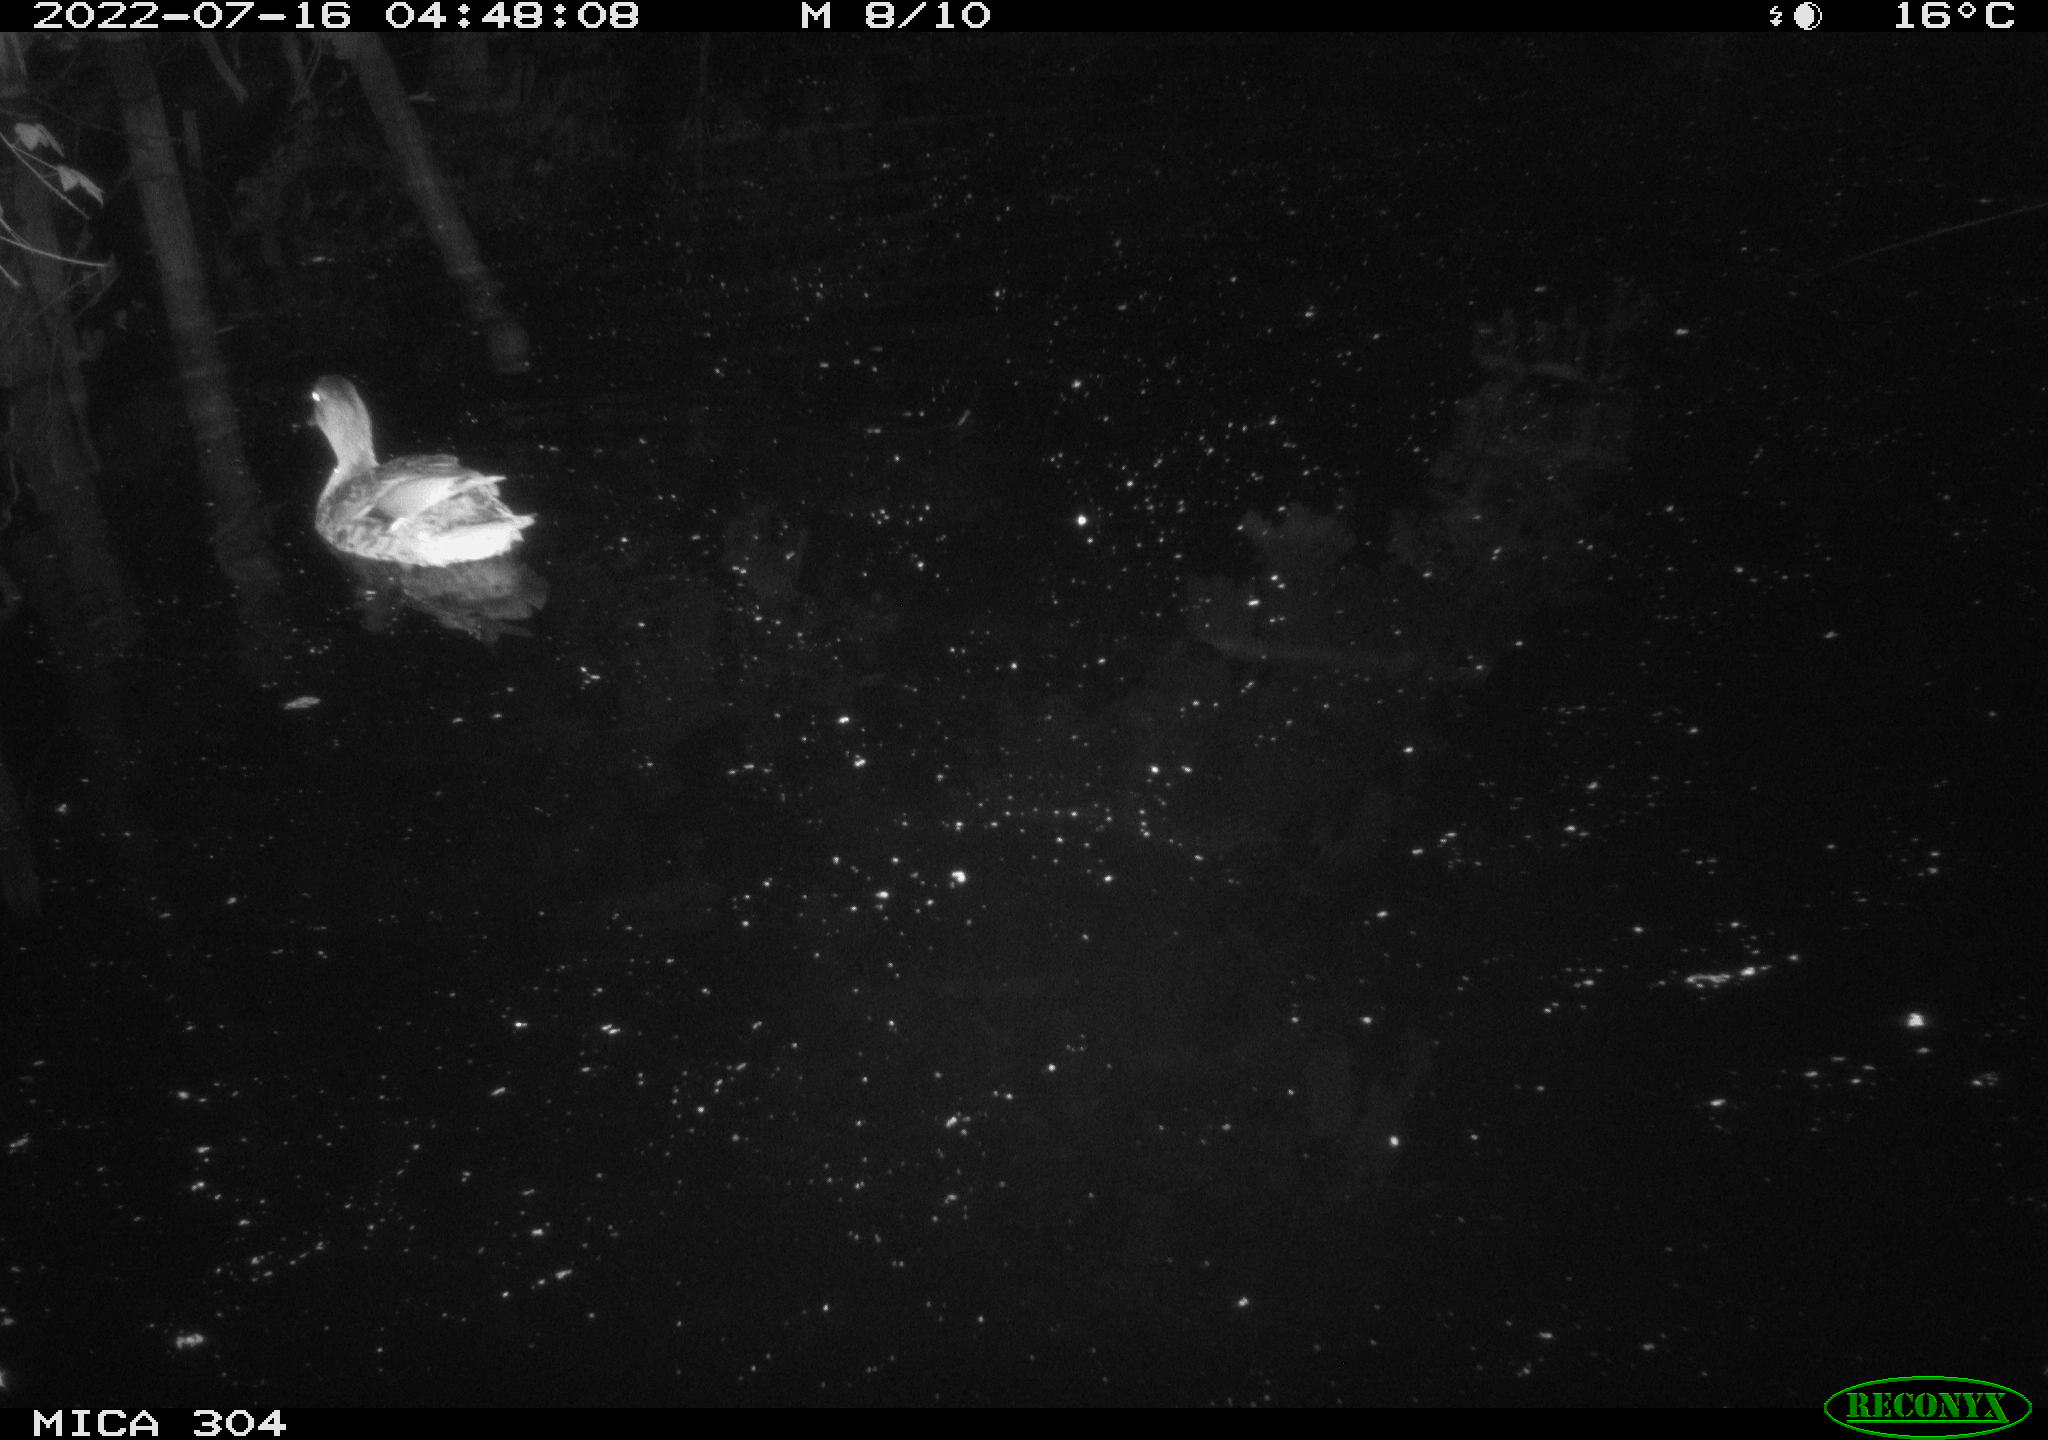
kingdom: Animalia
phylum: Chordata
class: Aves
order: Anseriformes
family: Anatidae
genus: Anas
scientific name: Anas platyrhynchos
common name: Mallard
